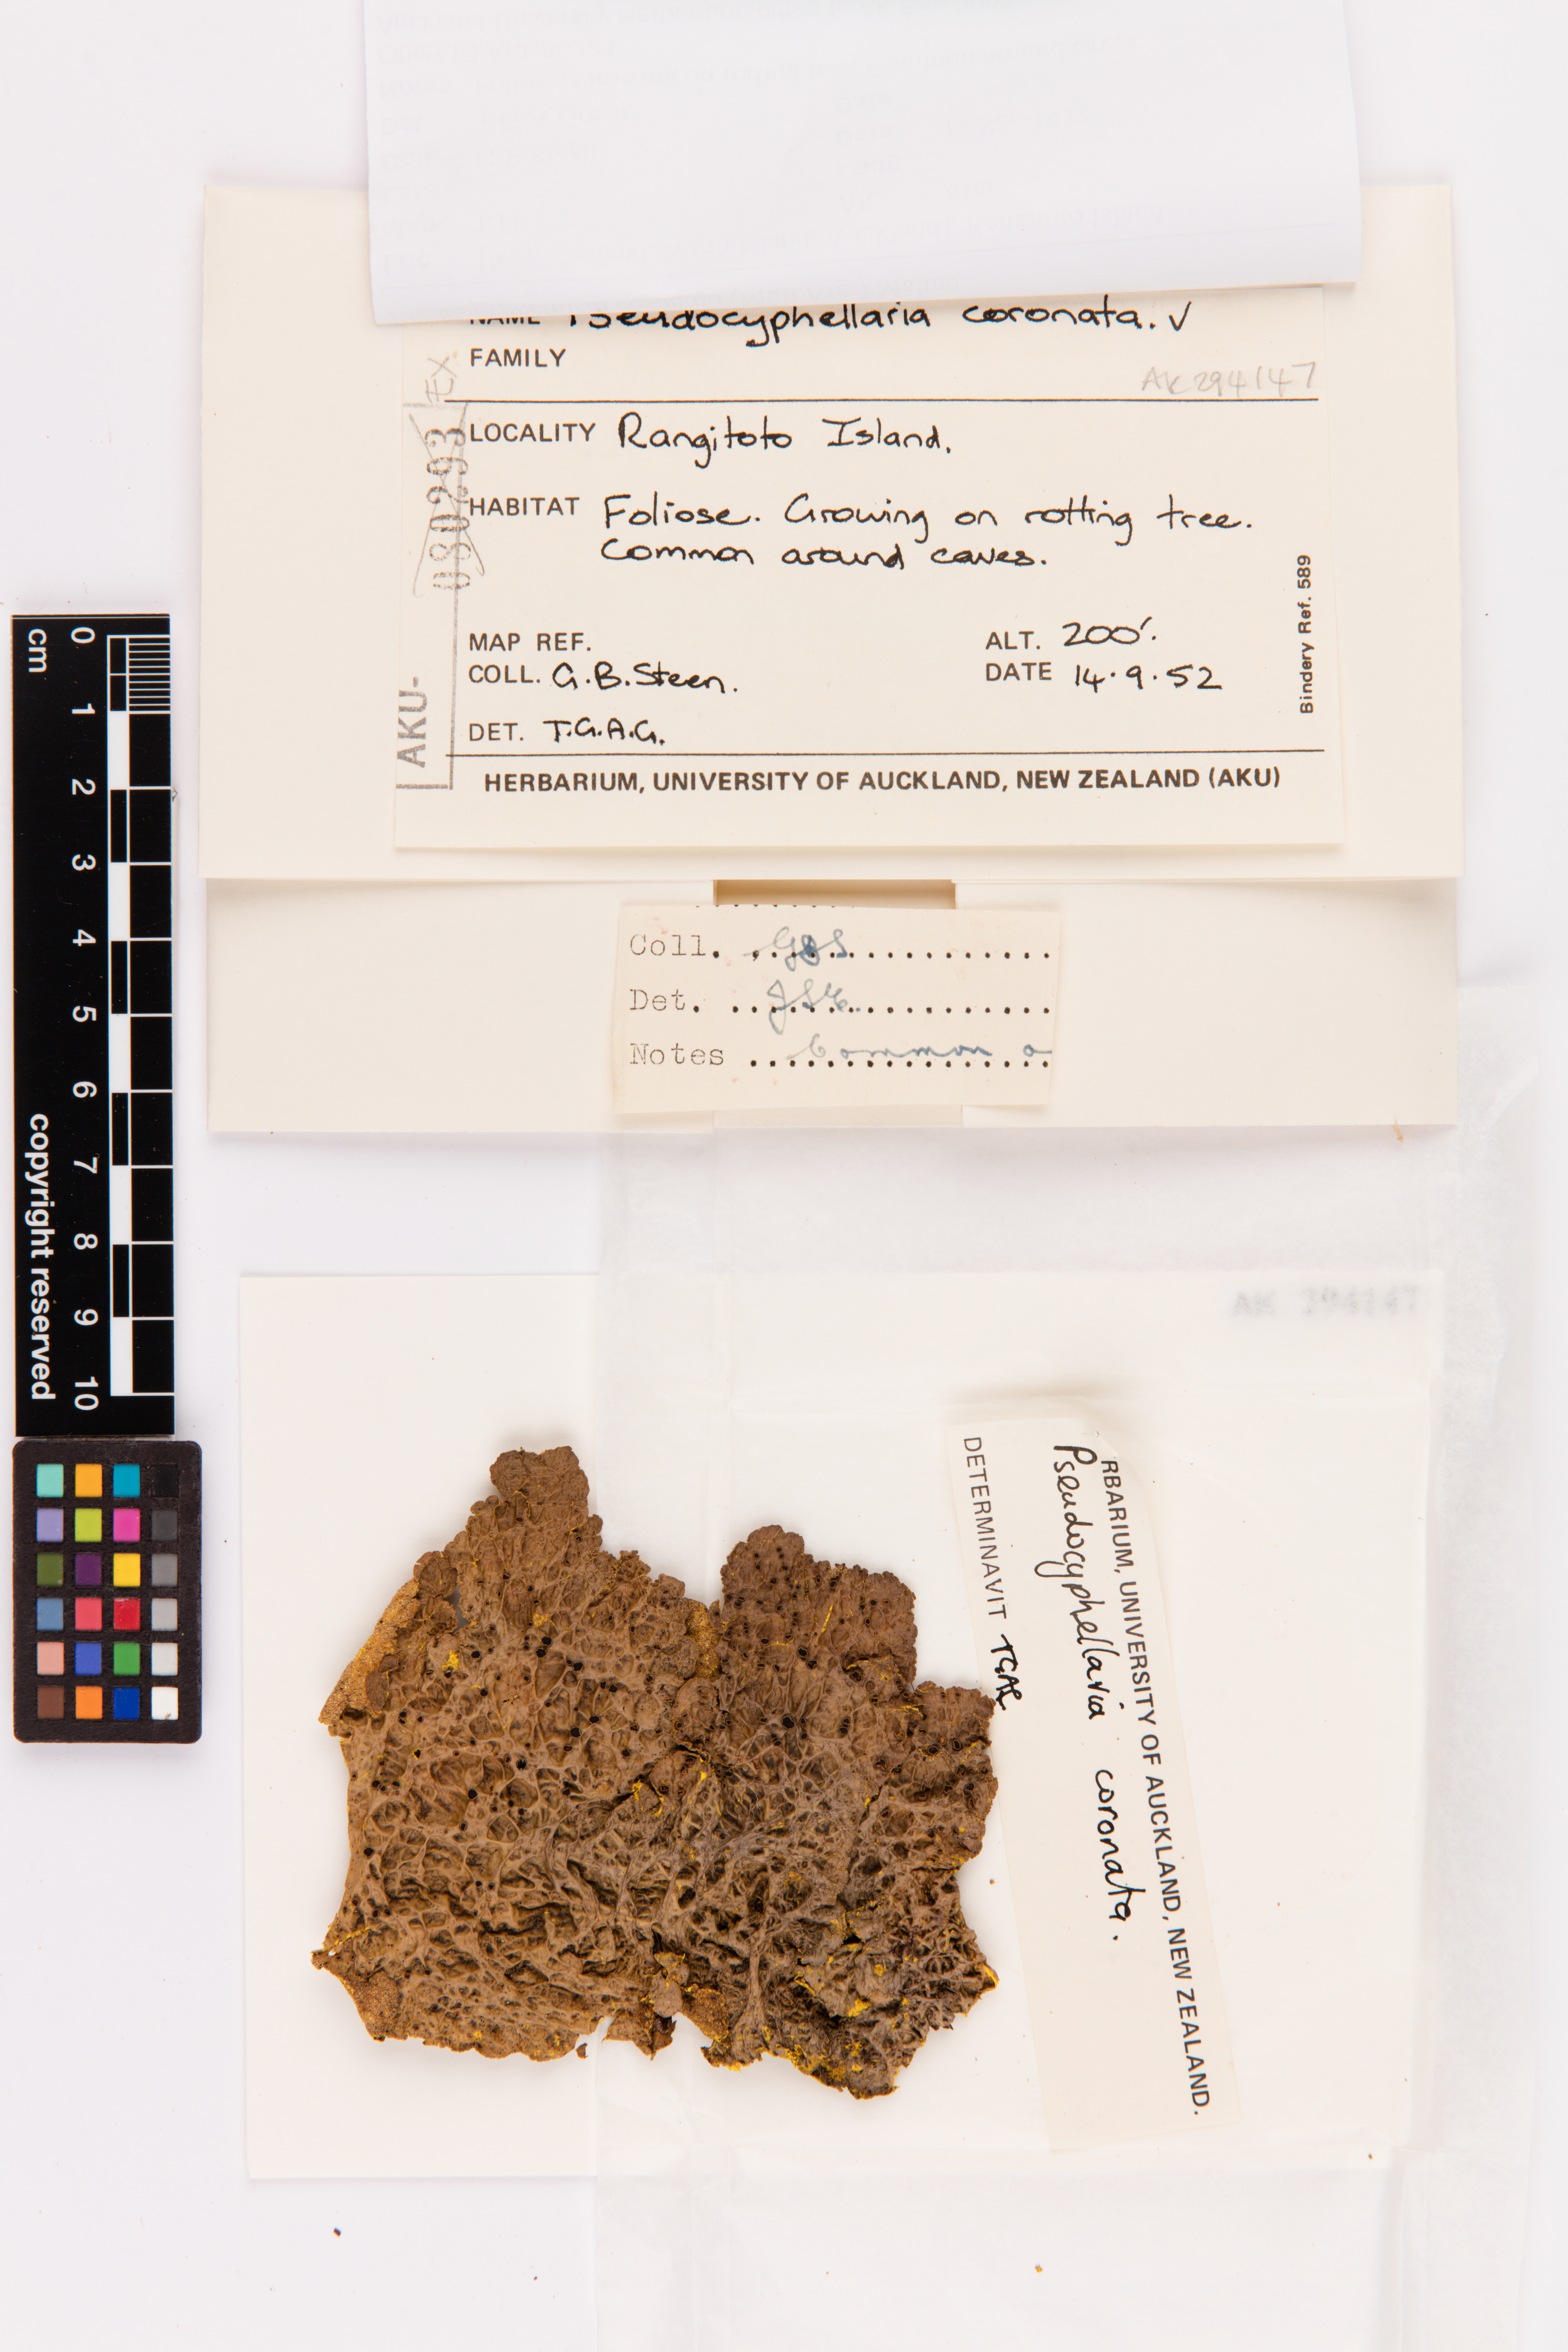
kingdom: Fungi
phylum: Ascomycota
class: Lecanoromycetes
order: Peltigerales
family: Lobariaceae
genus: Yarrumia
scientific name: Yarrumia coronata
